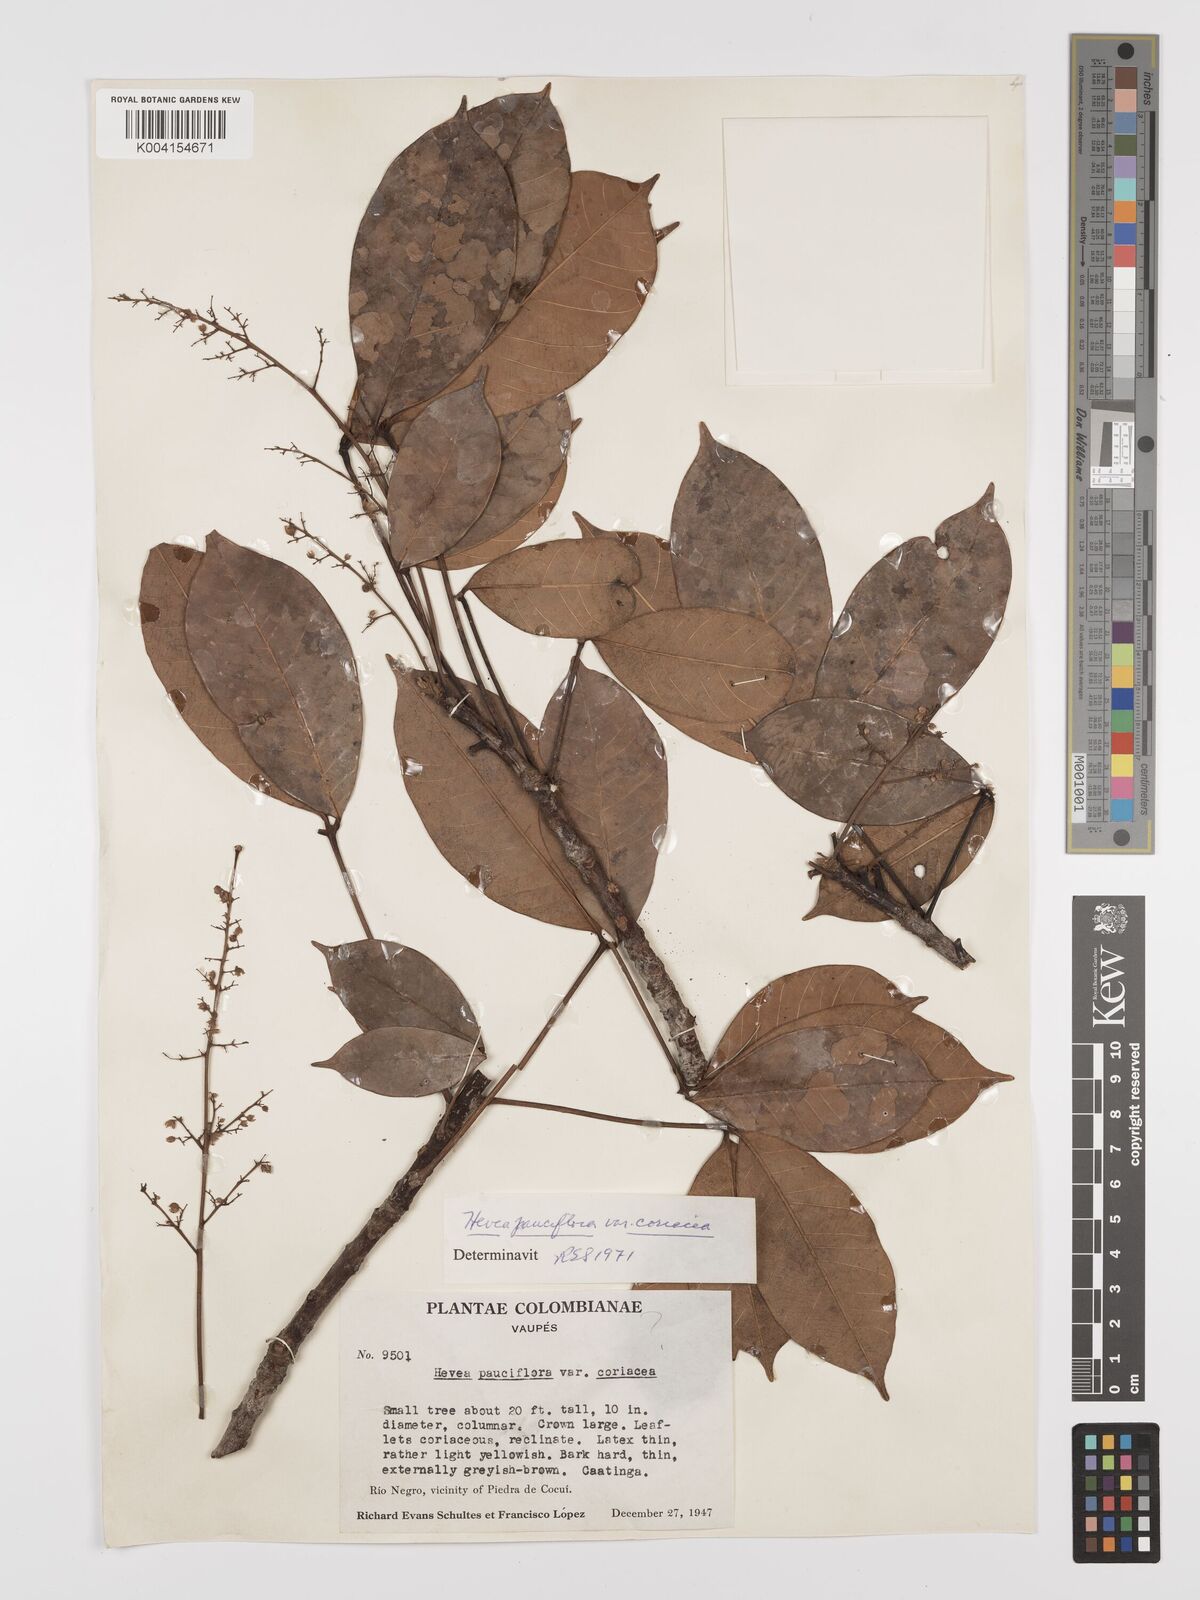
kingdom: Plantae
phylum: Tracheophyta
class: Magnoliopsida
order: Malpighiales
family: Euphorbiaceae
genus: Hevea
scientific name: Hevea pauciflora
